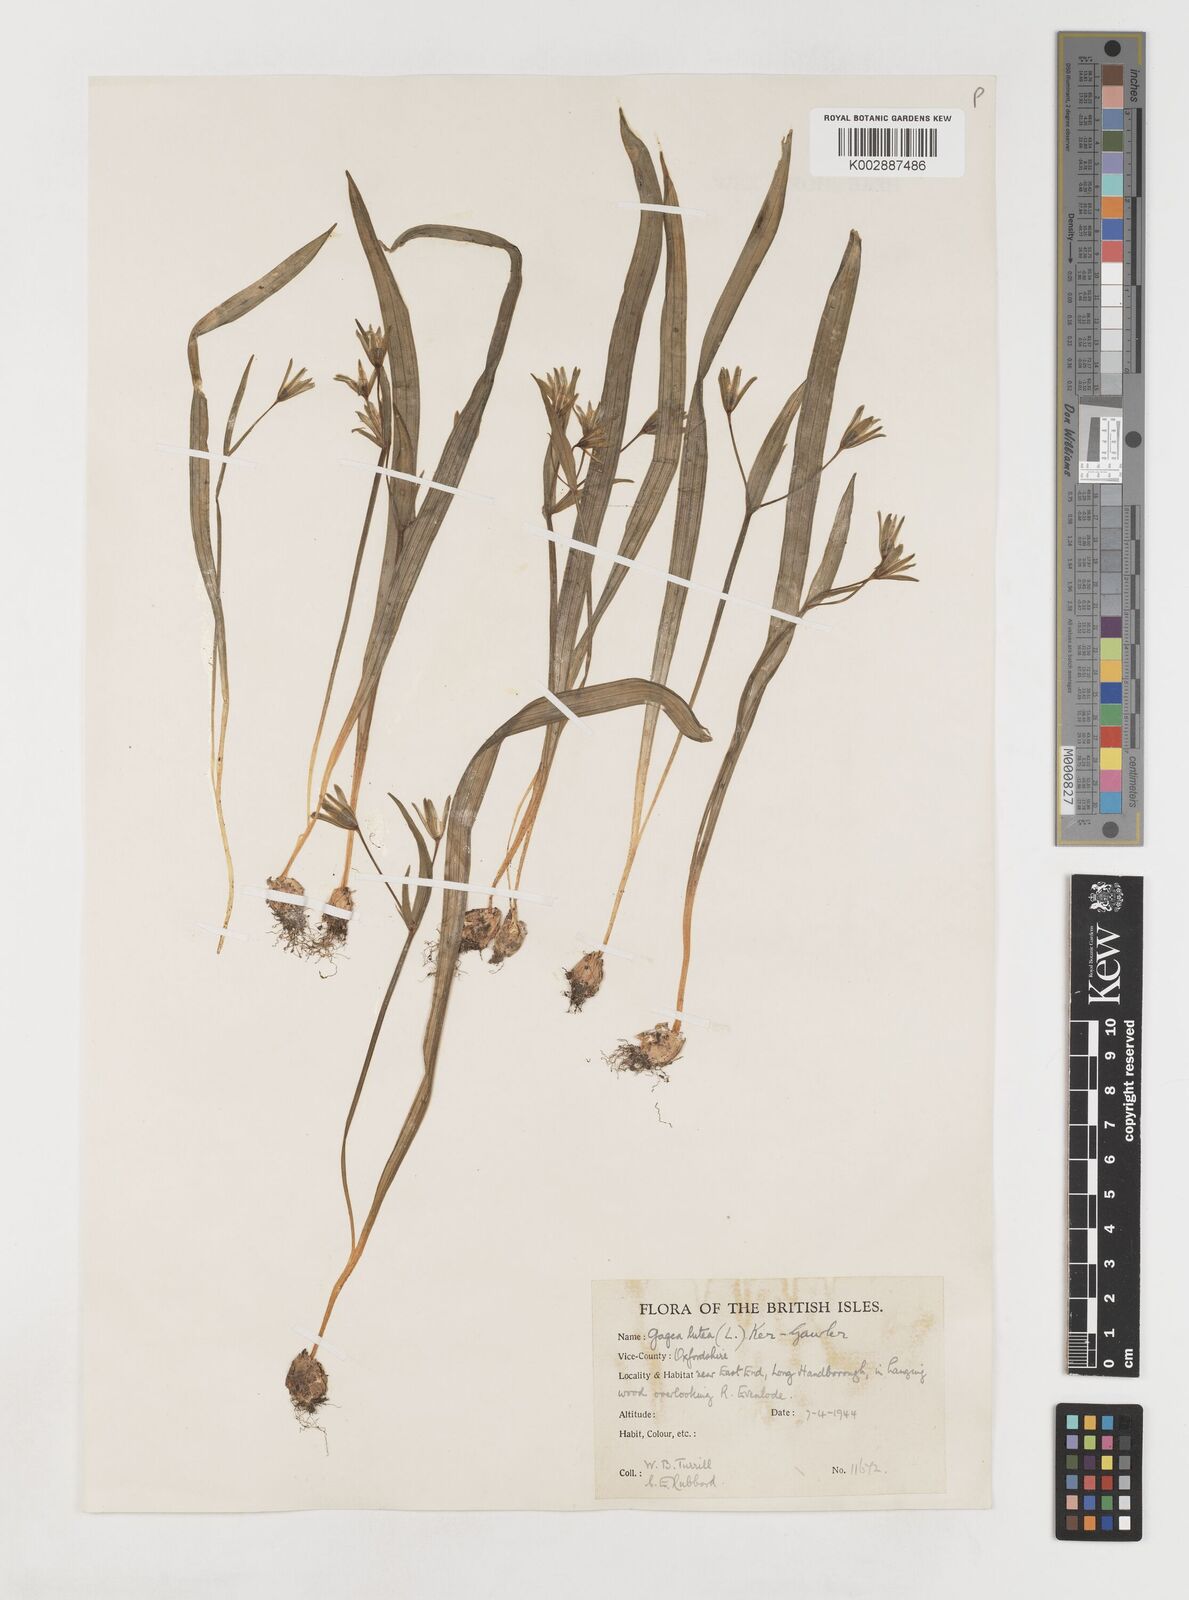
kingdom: Plantae
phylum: Tracheophyta
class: Liliopsida
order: Liliales
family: Liliaceae
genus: Gagea
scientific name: Gagea lutea
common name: Yellow star-of-bethlehem
